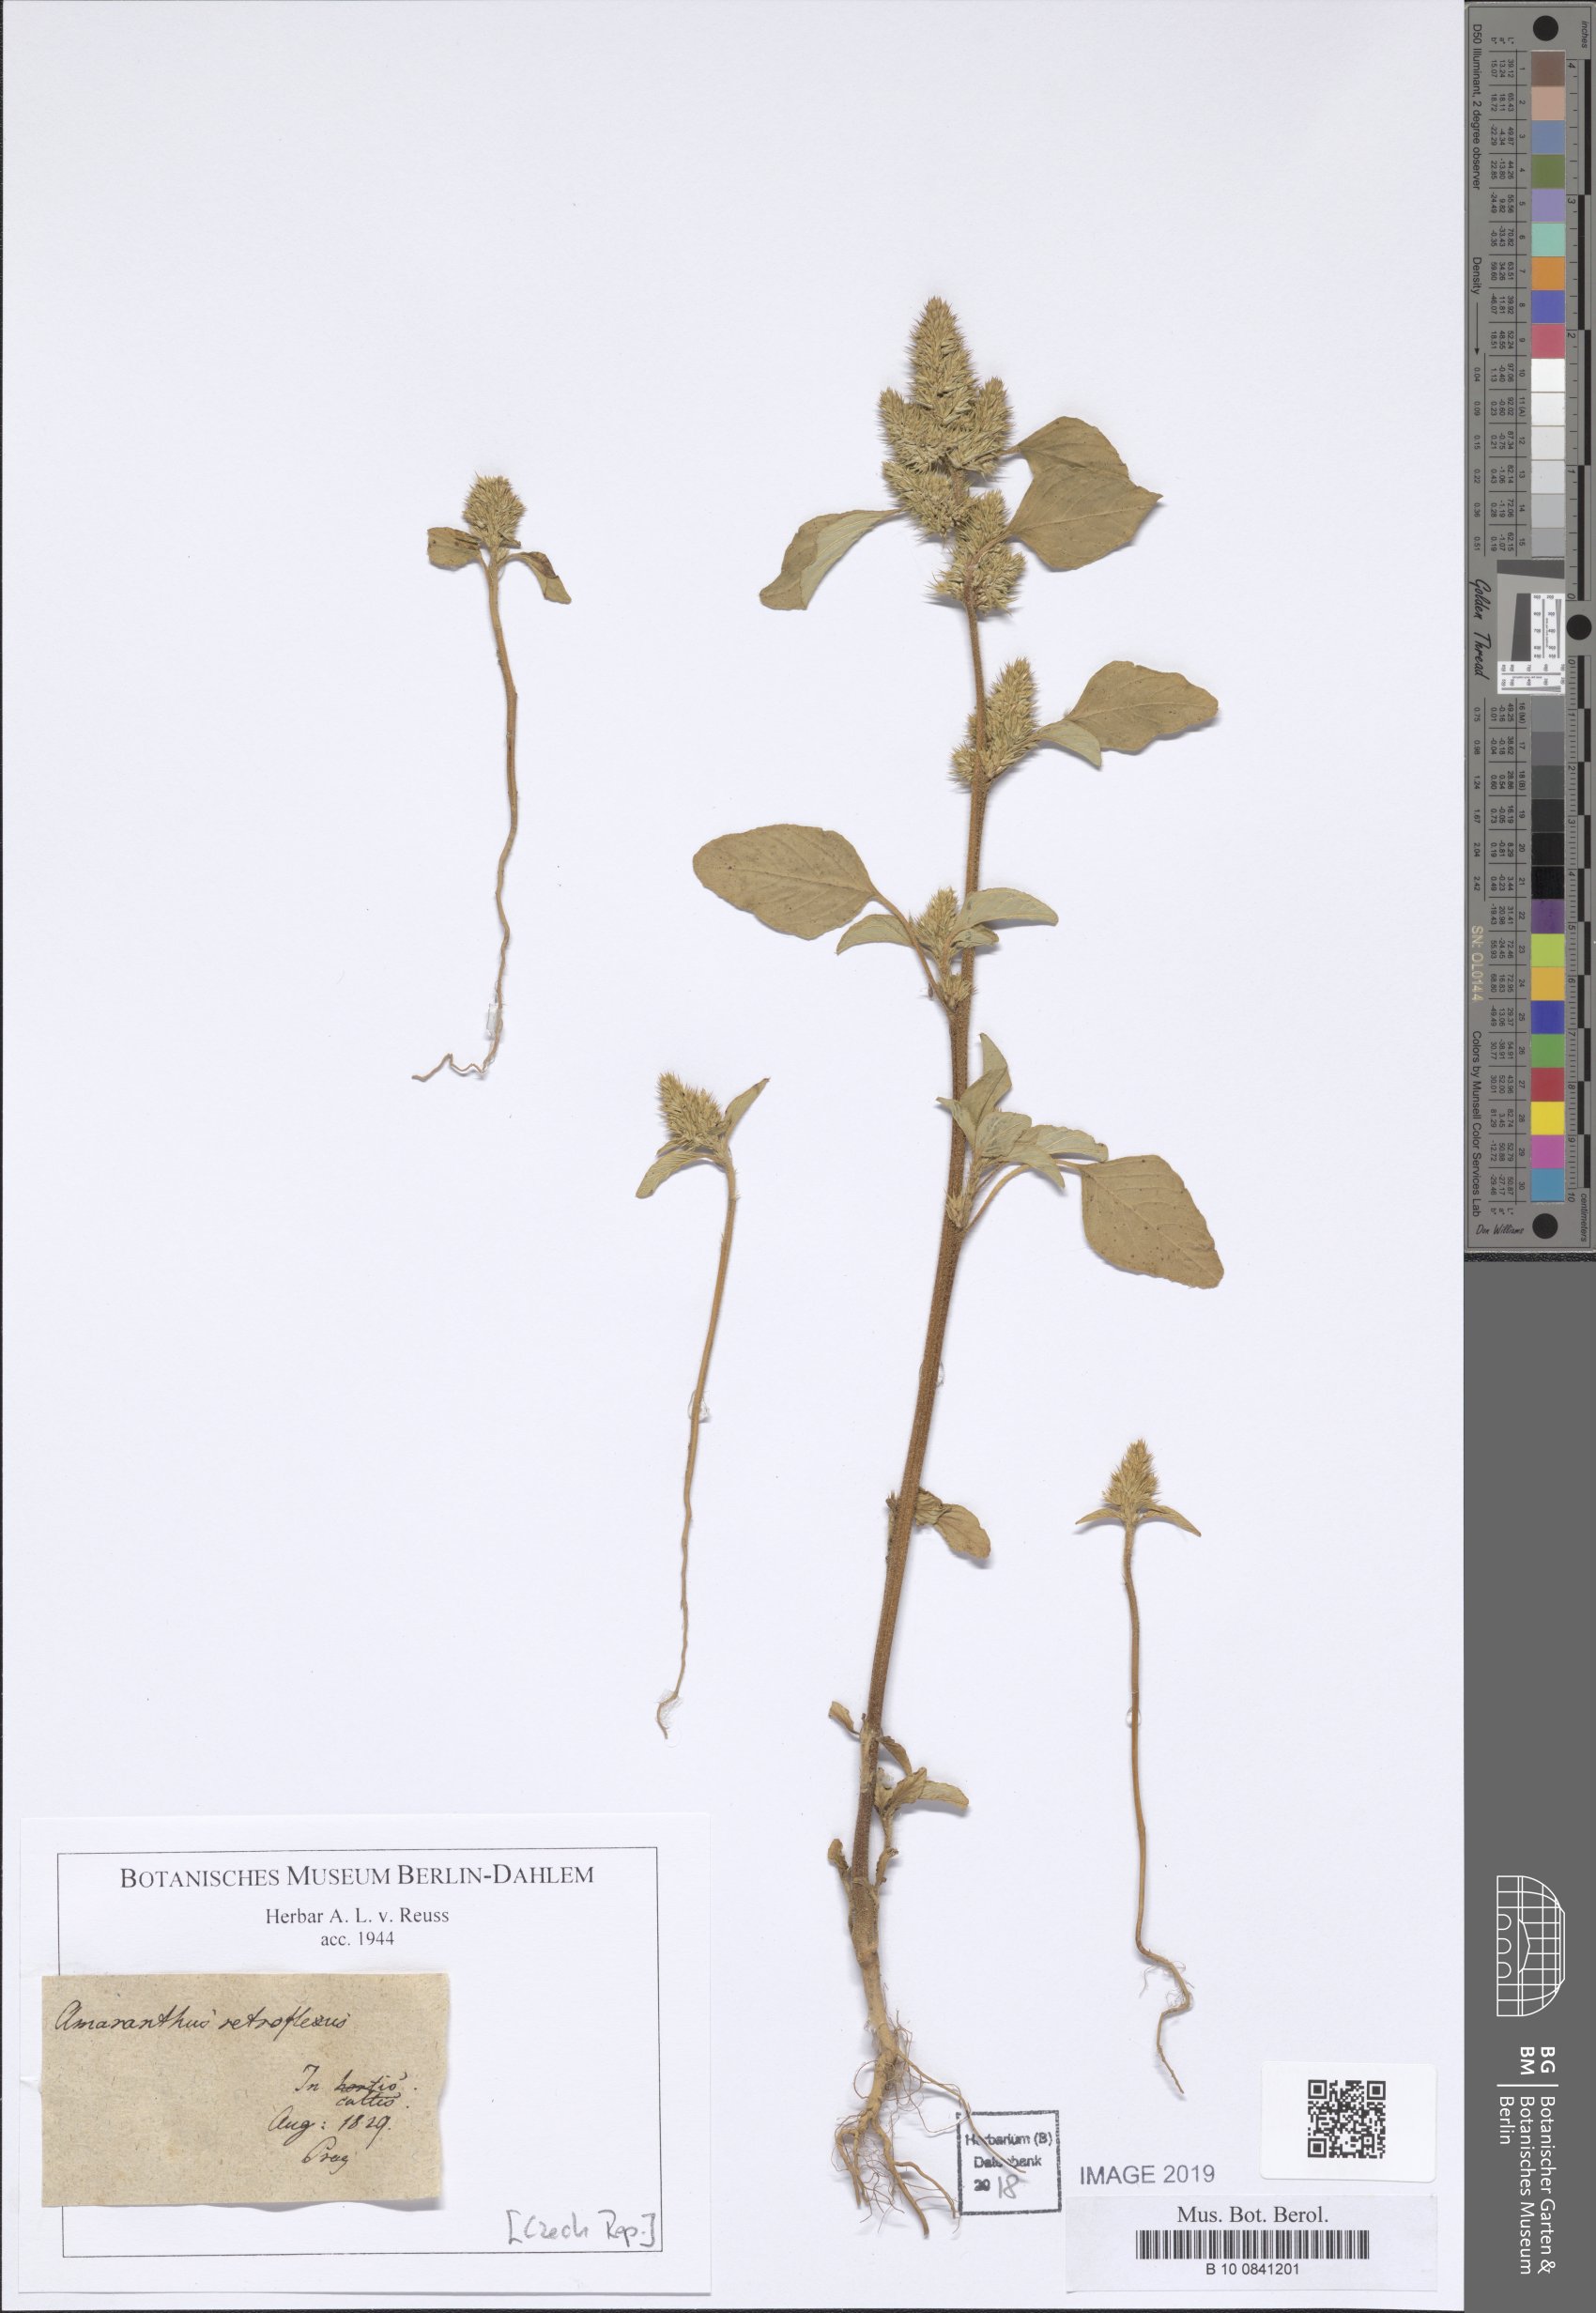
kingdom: Plantae
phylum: Tracheophyta
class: Magnoliopsida
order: Caryophyllales
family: Amaranthaceae
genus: Amaranthus
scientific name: Amaranthus retroflexus
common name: Redroot amaranth
